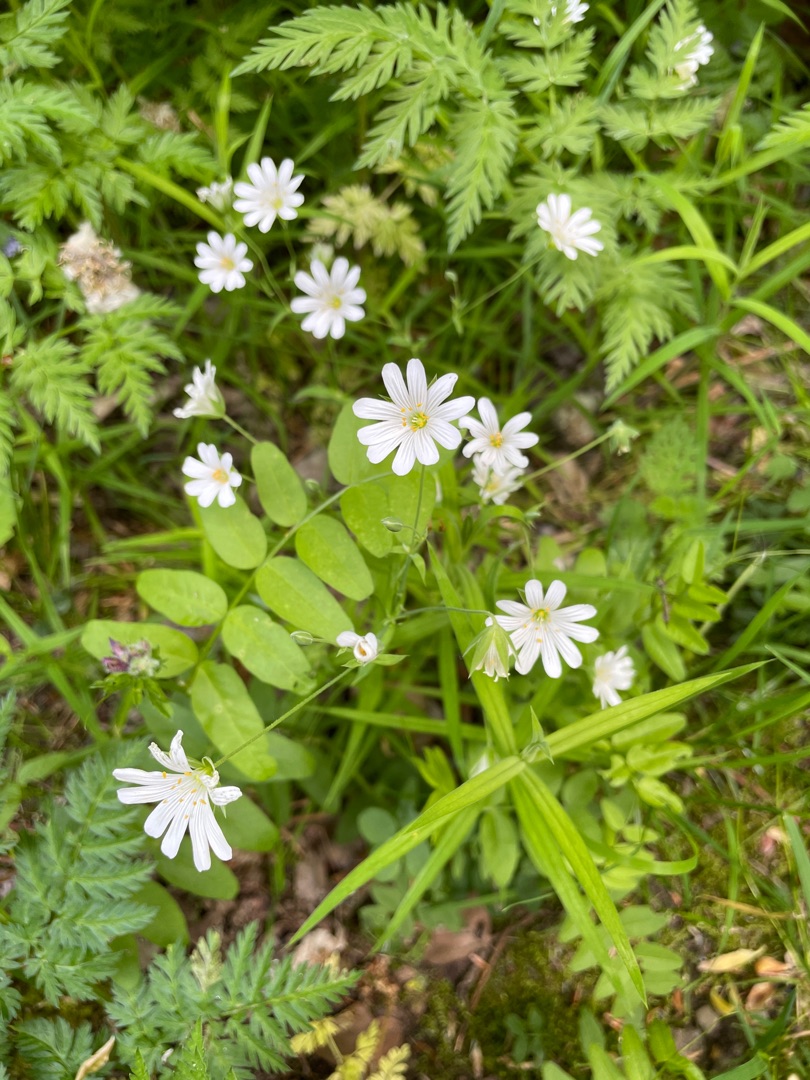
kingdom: Plantae
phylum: Tracheophyta
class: Magnoliopsida
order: Caryophyllales
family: Caryophyllaceae
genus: Rabelera
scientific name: Rabelera holostea
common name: Stor fladstjerne
